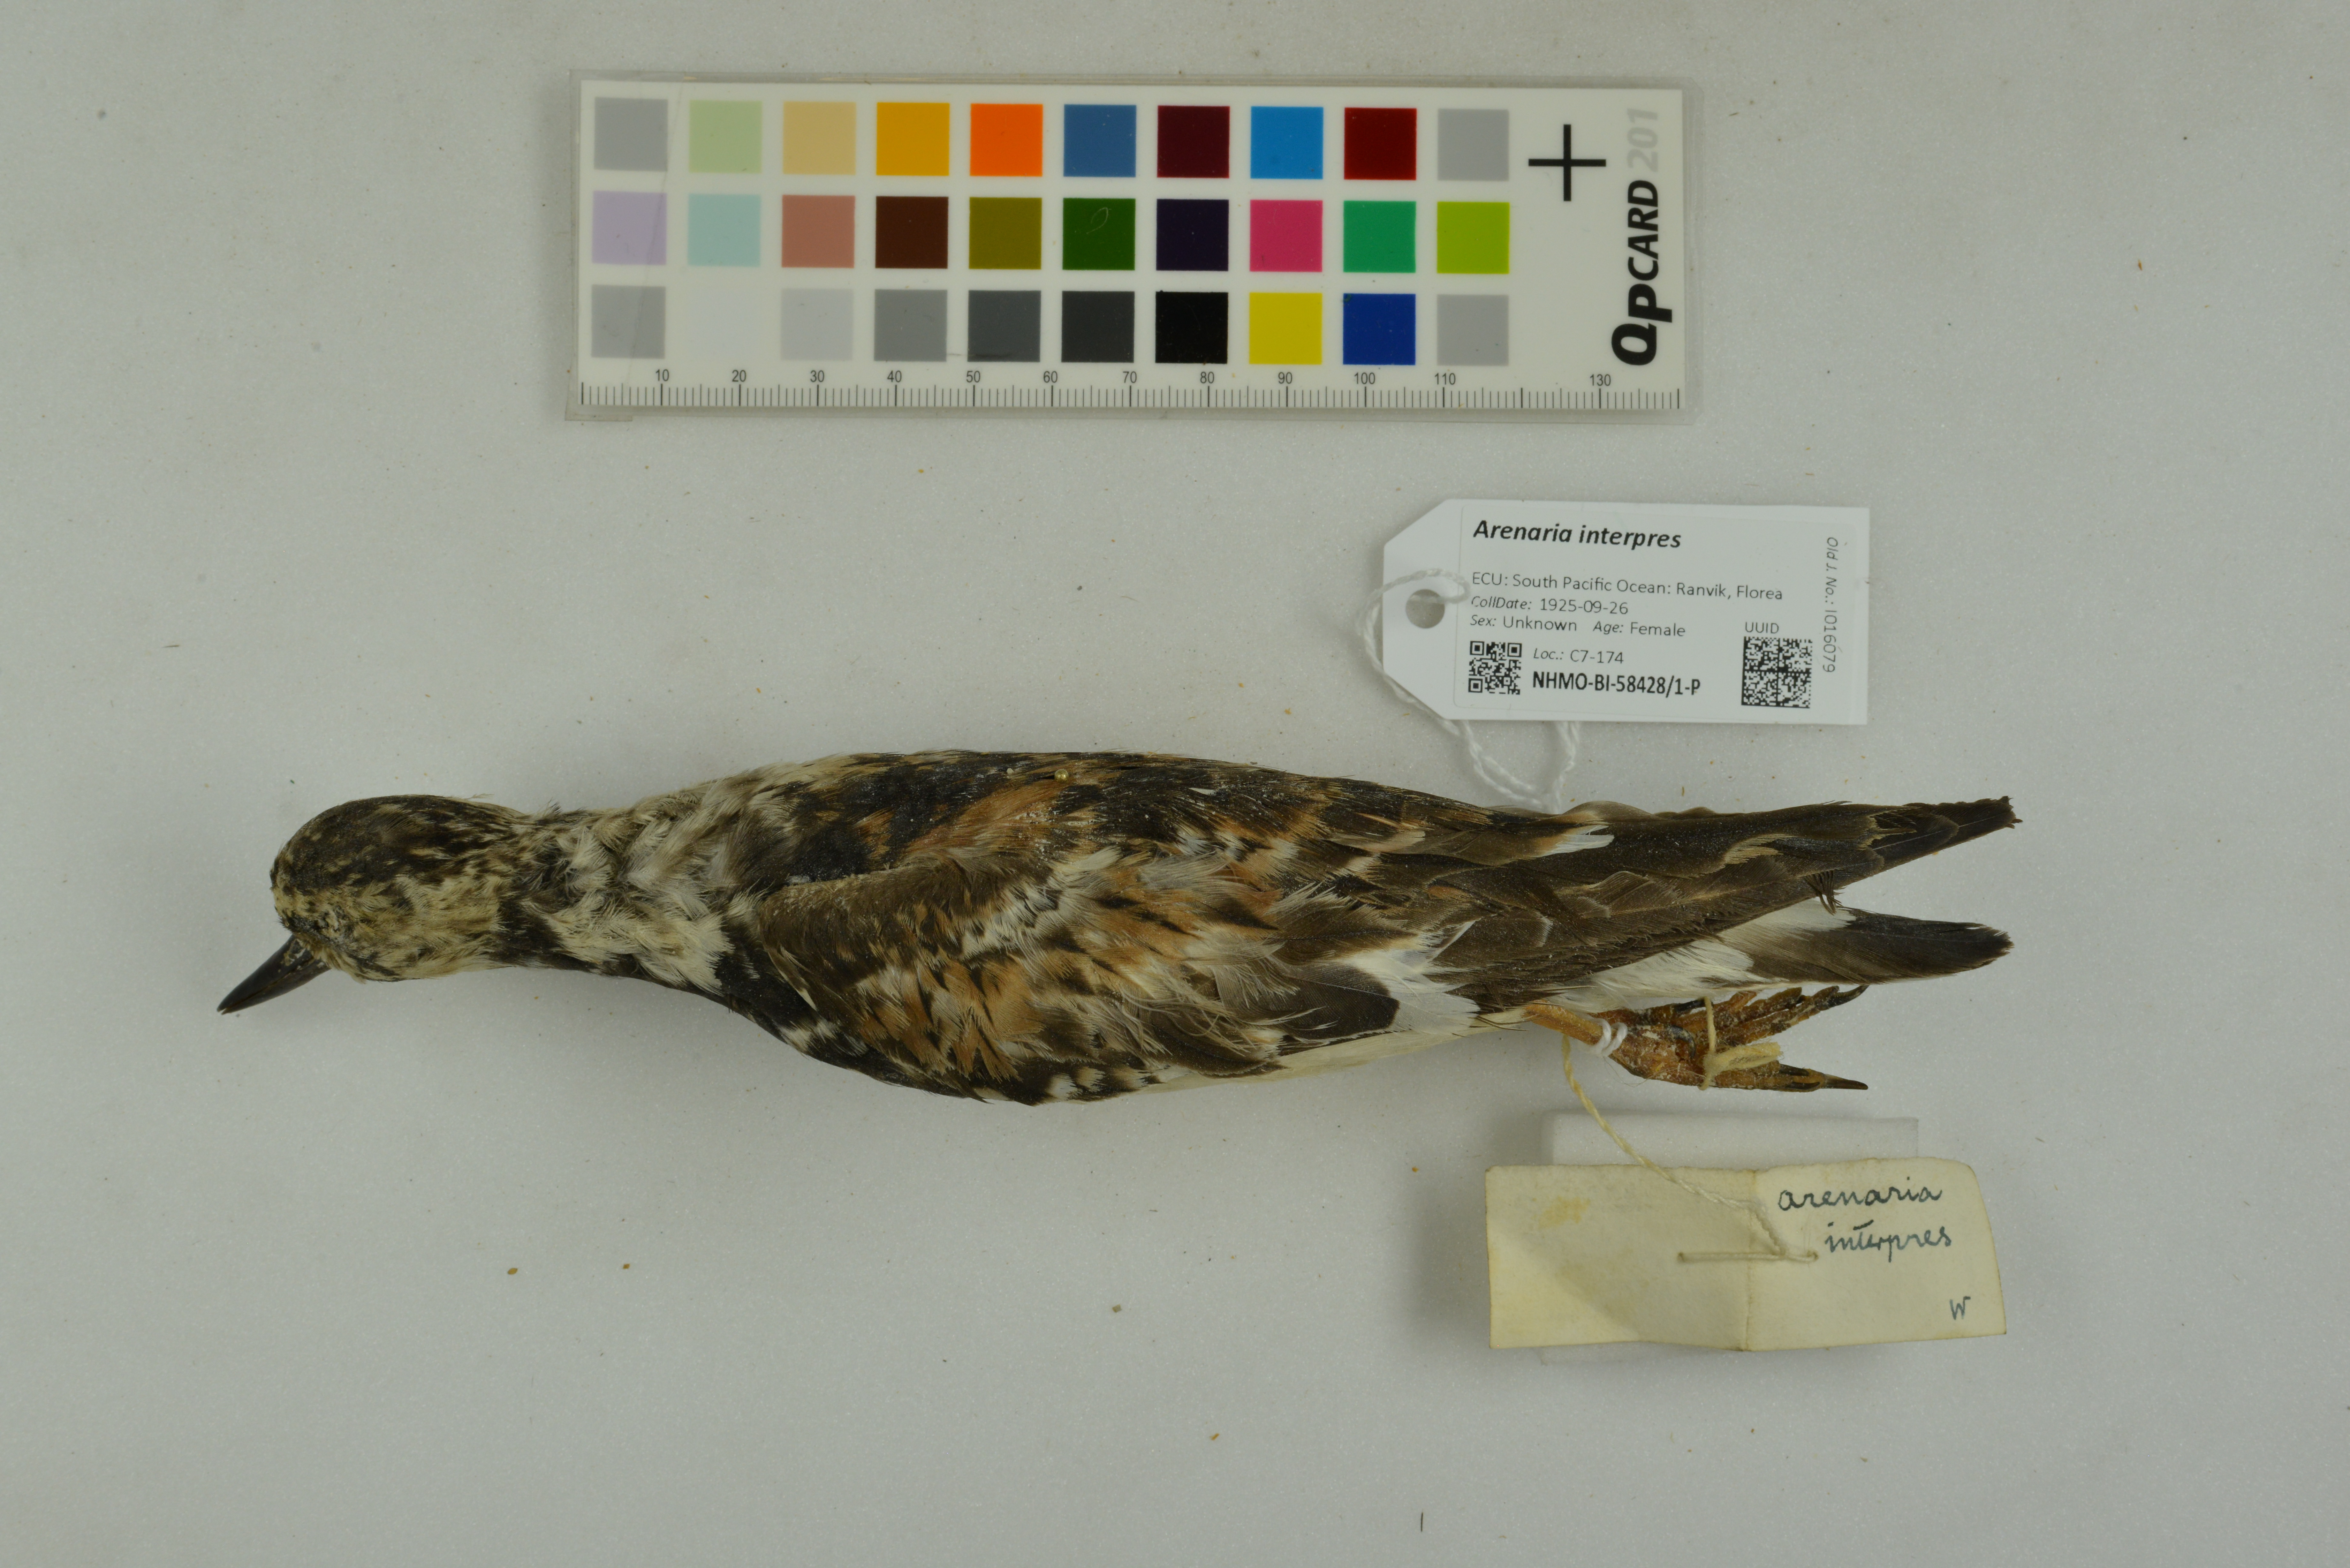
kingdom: Animalia
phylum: Chordata
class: Aves
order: Charadriiformes
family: Scolopacidae
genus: Arenaria
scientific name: Arenaria interpres
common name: Ruddy turnstone
